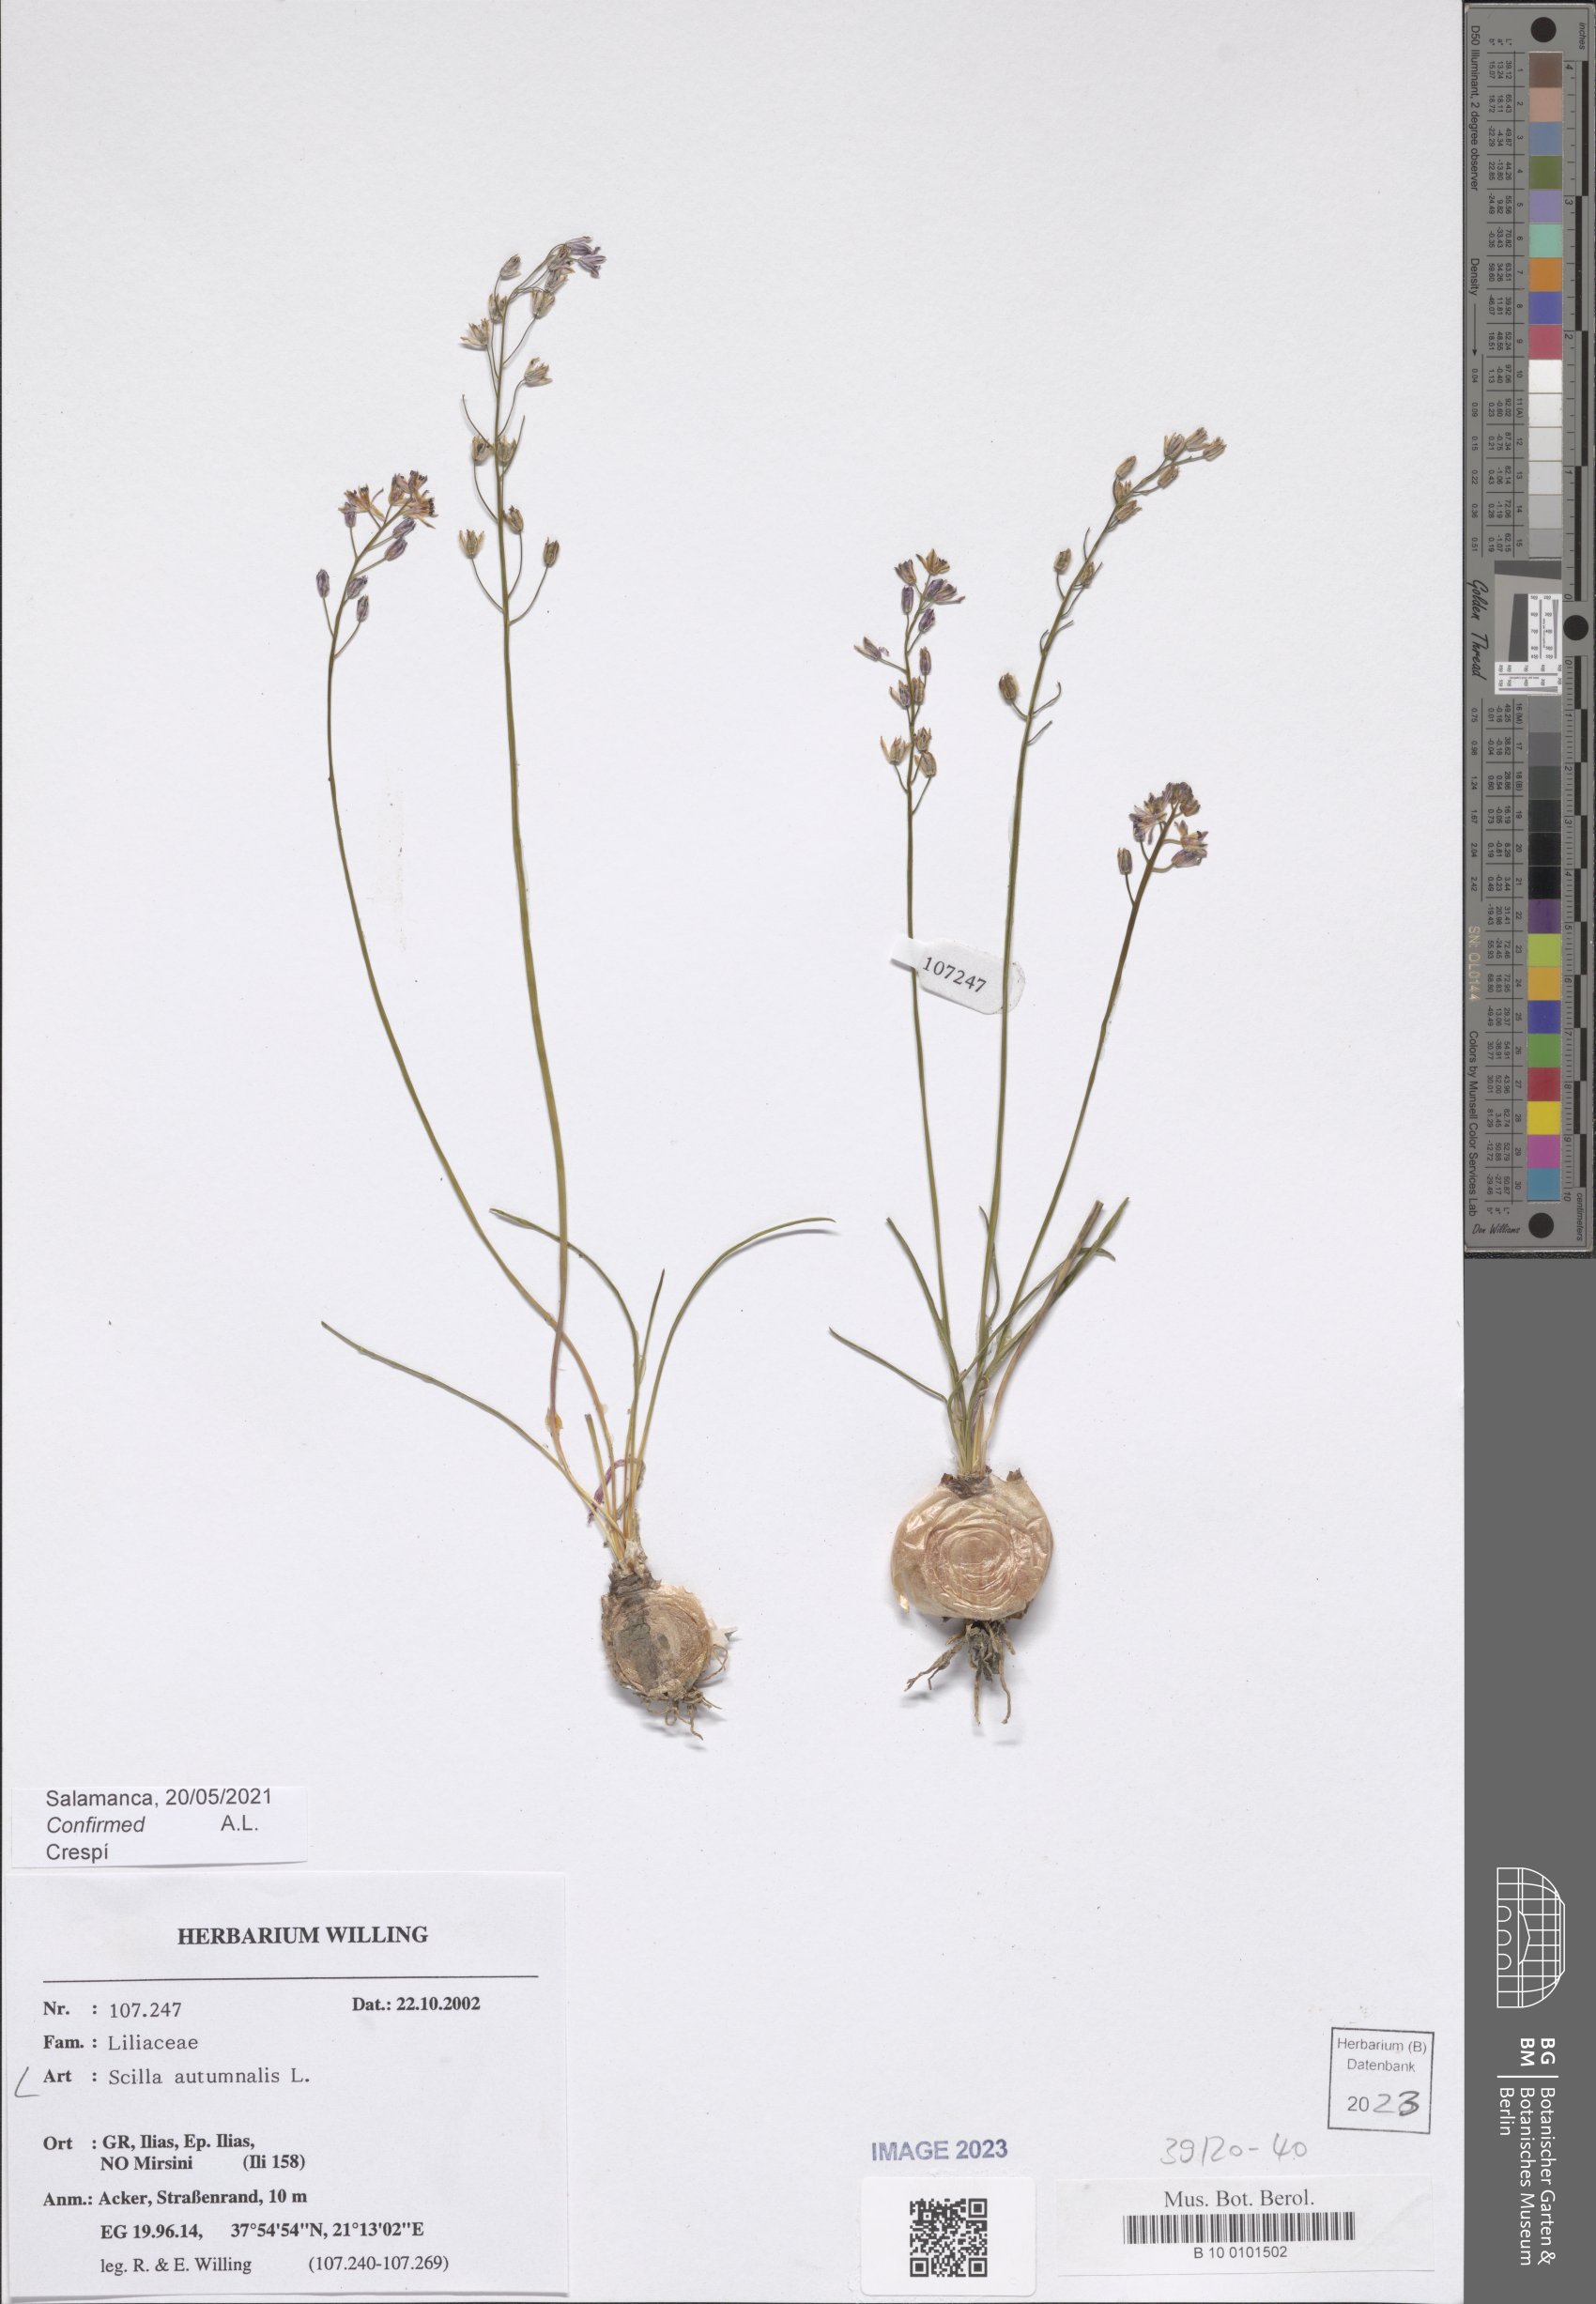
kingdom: Plantae
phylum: Tracheophyta
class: Liliopsida
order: Asparagales
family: Asparagaceae
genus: Prospero
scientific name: Prospero autumnale
